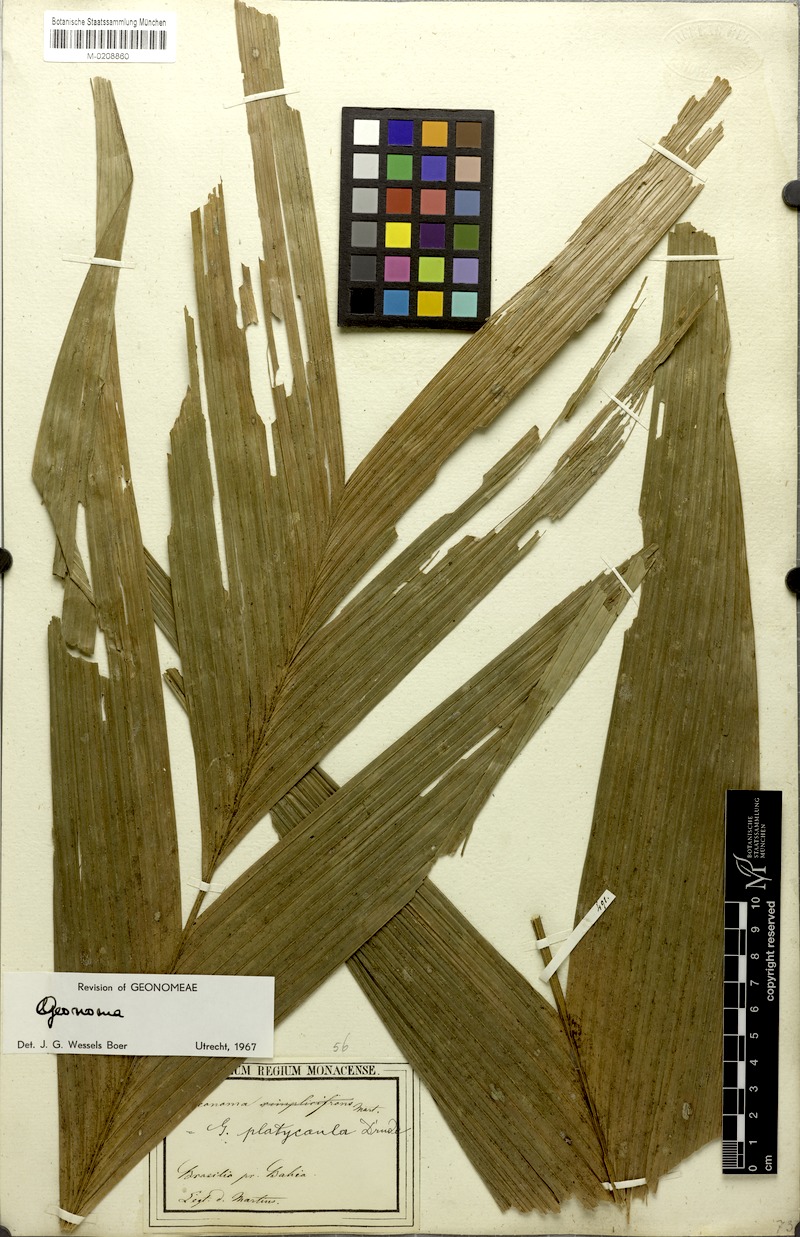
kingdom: Plantae
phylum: Tracheophyta
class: Liliopsida
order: Arecales
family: Arecaceae
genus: Geonoma
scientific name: Geonoma pohliana
